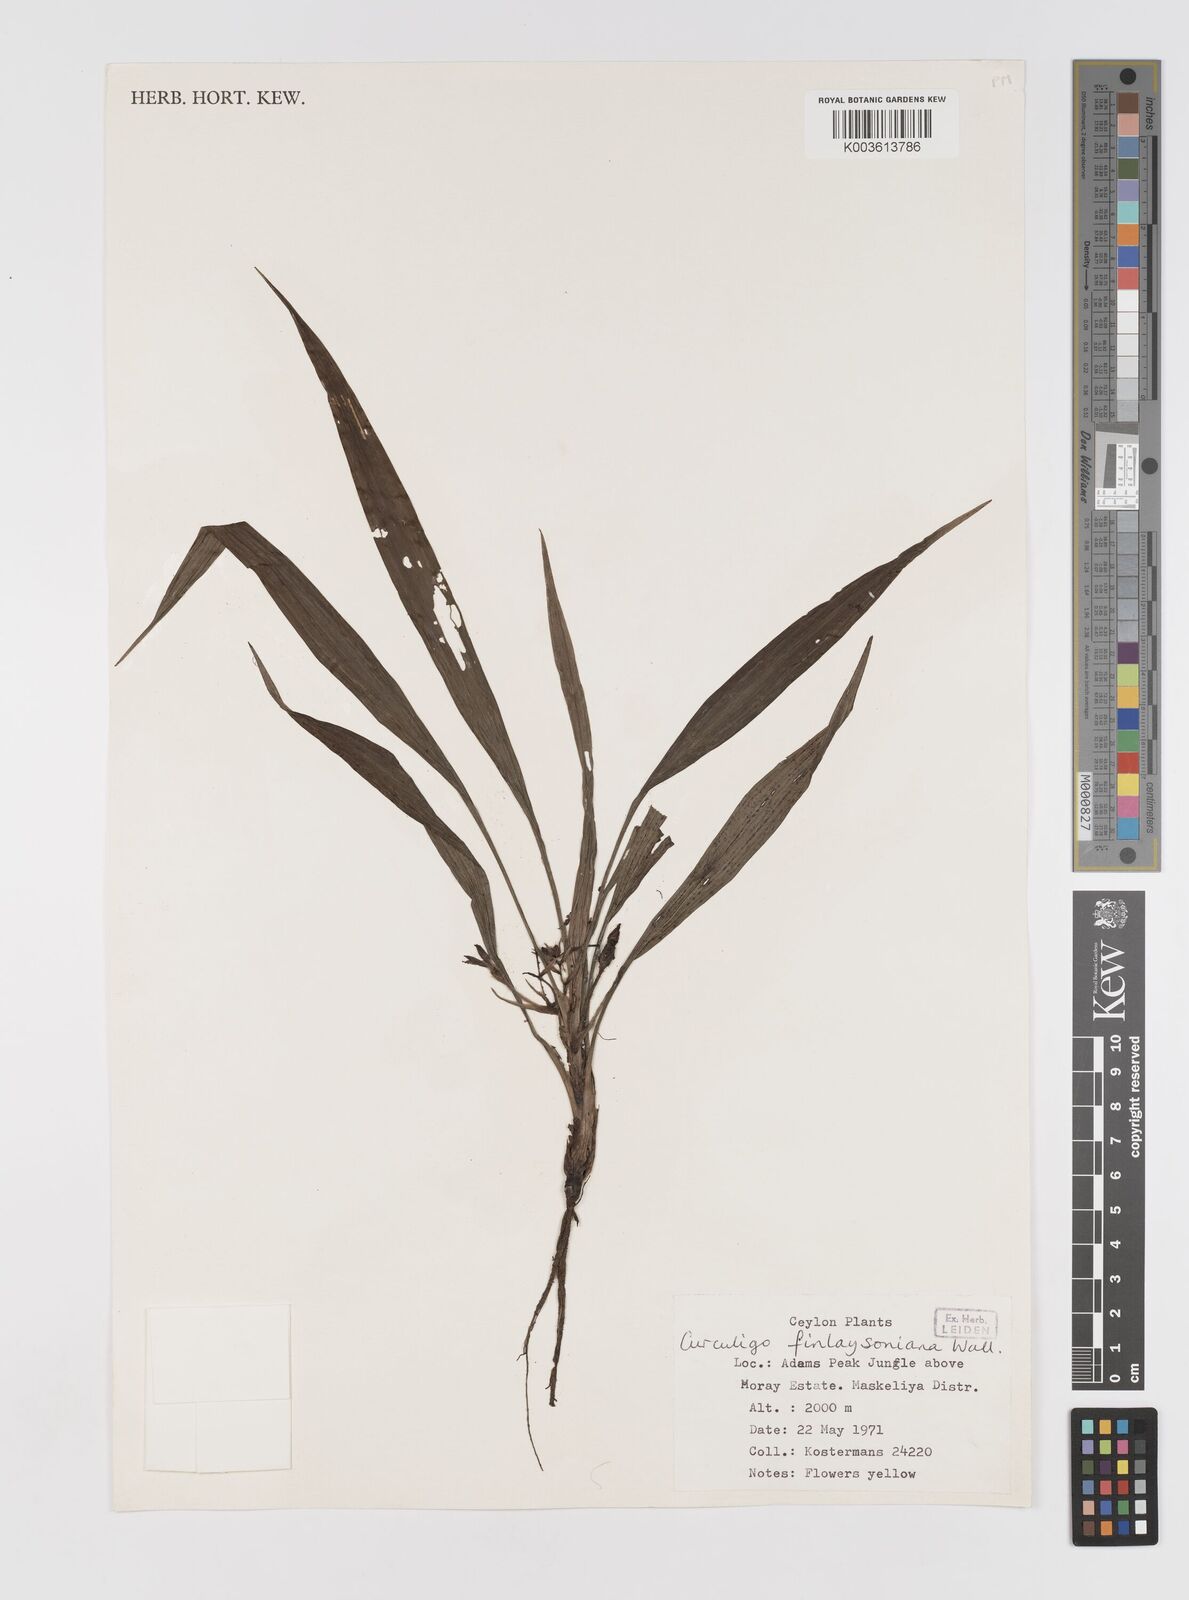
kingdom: Plantae
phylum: Tracheophyta
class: Liliopsida
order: Asparagales
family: Hypoxidaceae
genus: Curculigo
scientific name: Curculigo trichocarpa
